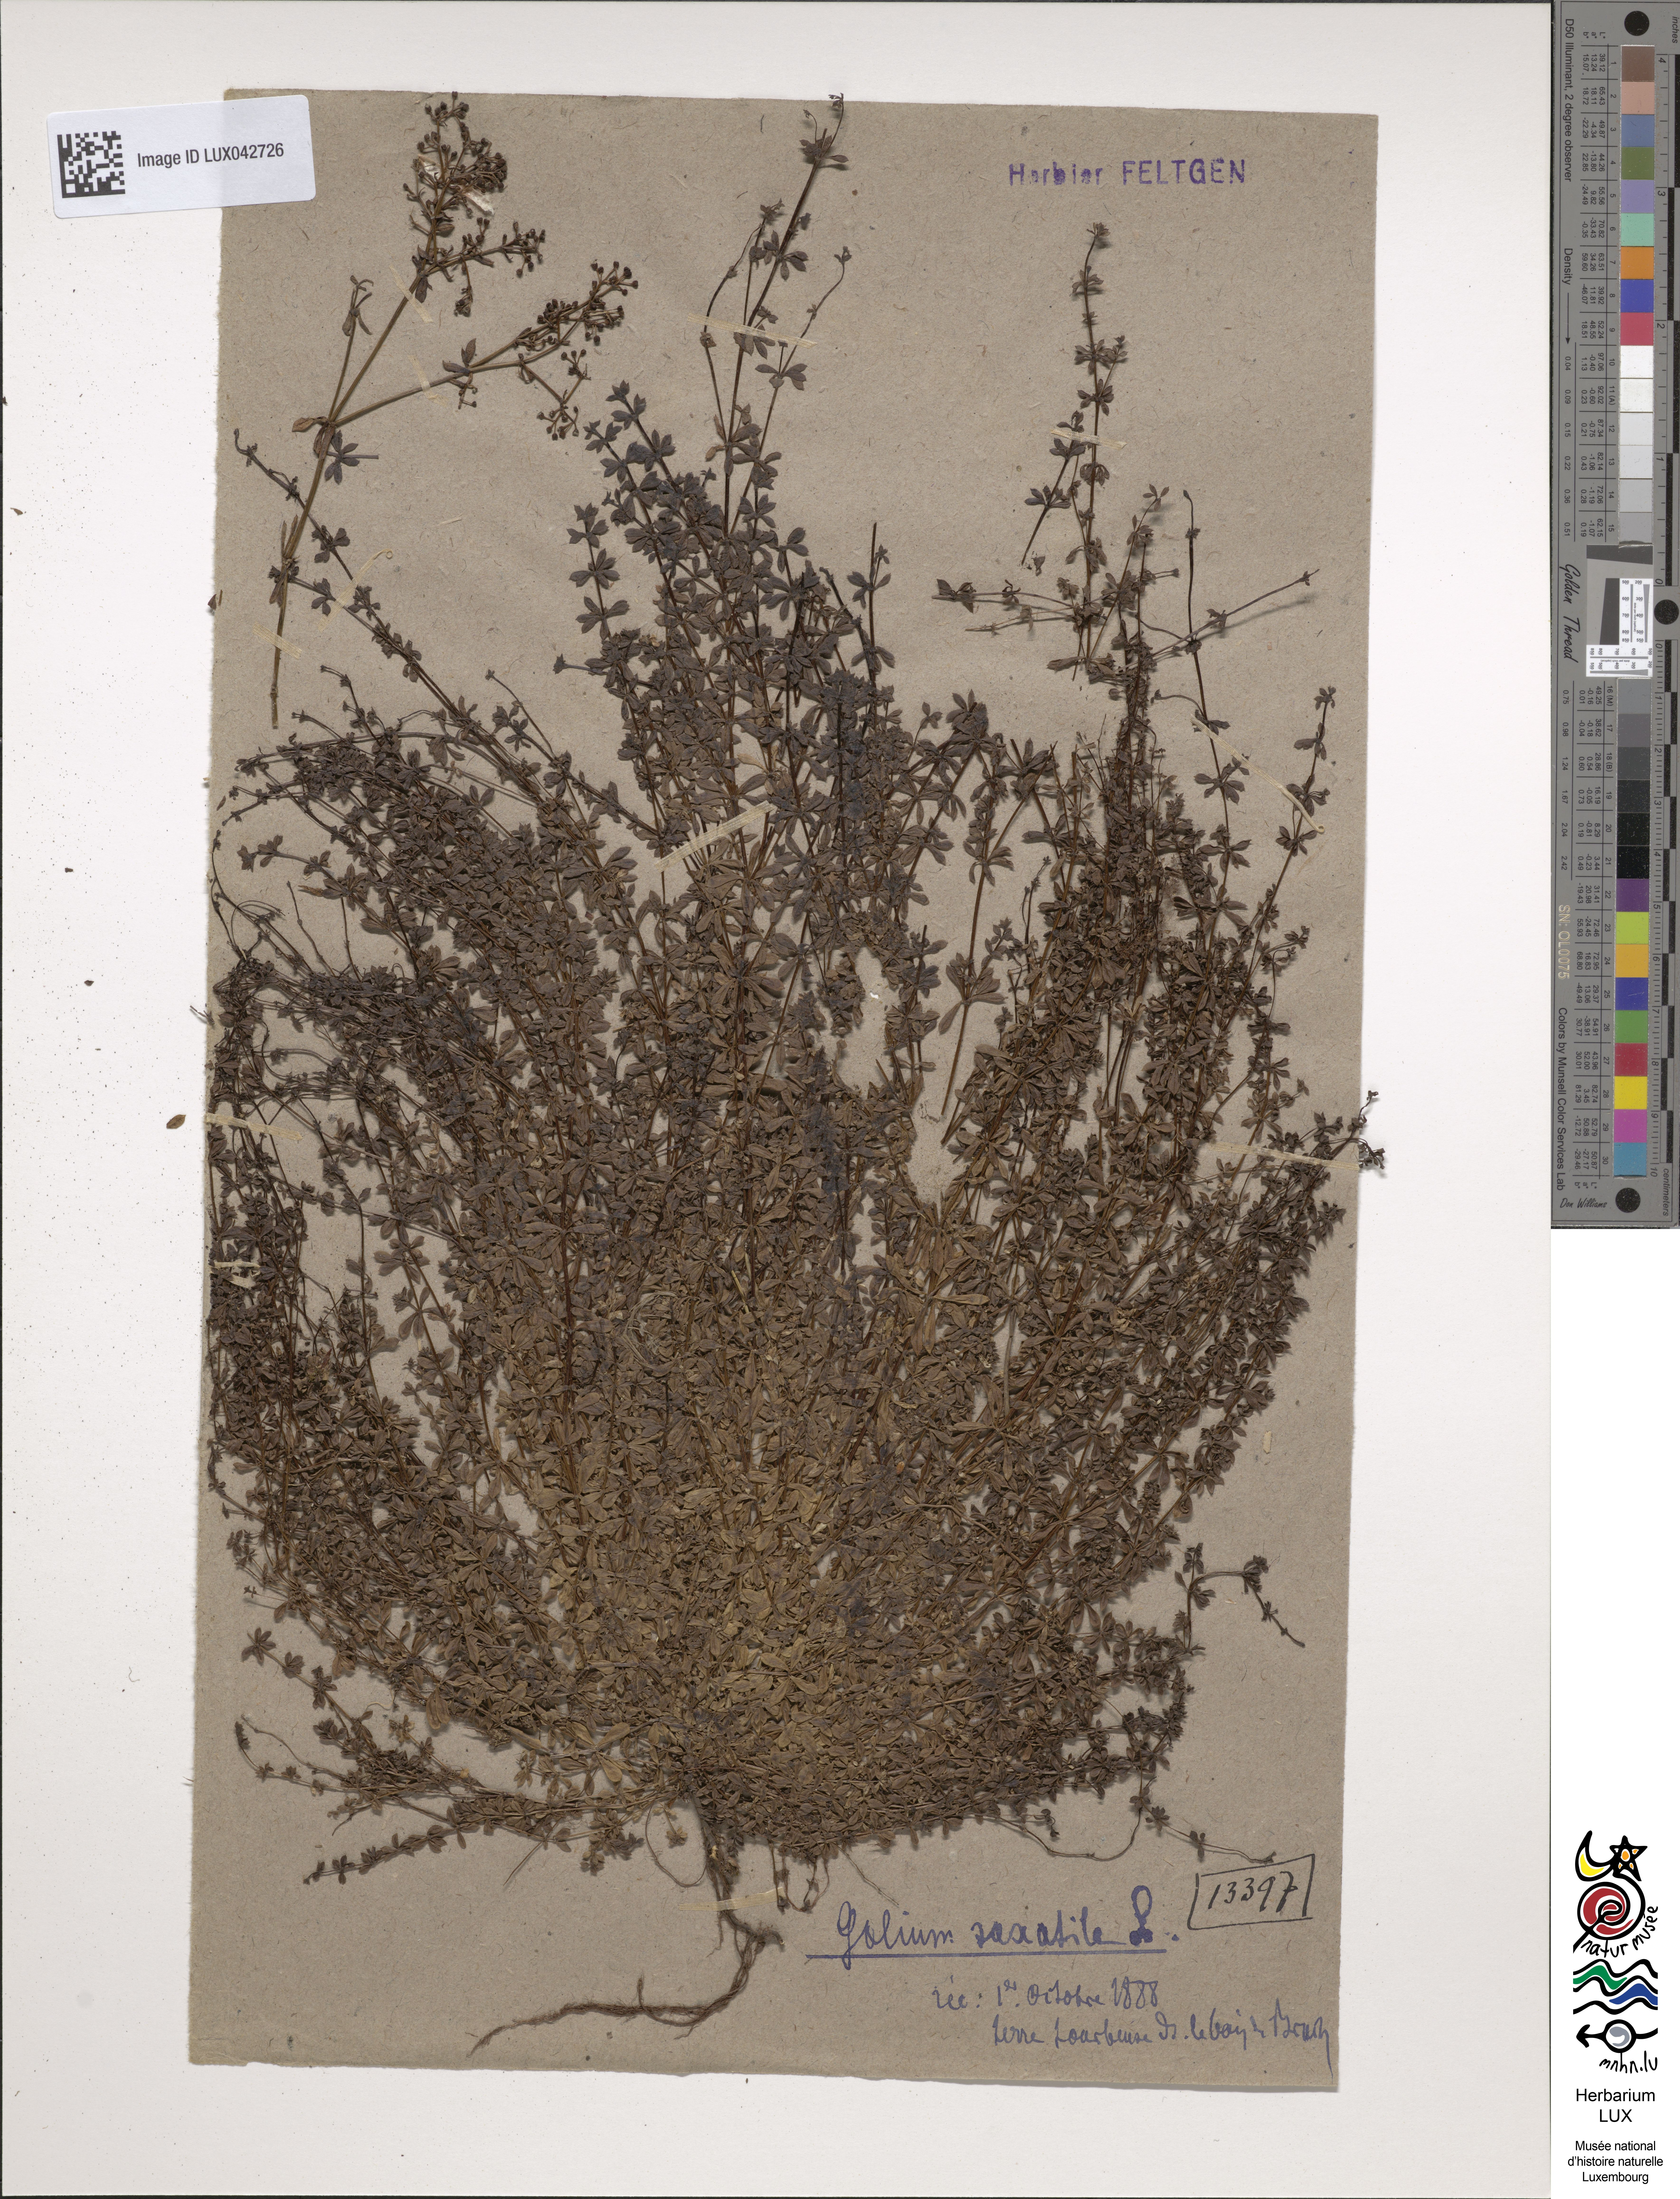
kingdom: Plantae
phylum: Tracheophyta
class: Magnoliopsida
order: Gentianales
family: Rubiaceae
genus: Galium
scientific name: Galium saxatile
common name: Heath bedstraw
